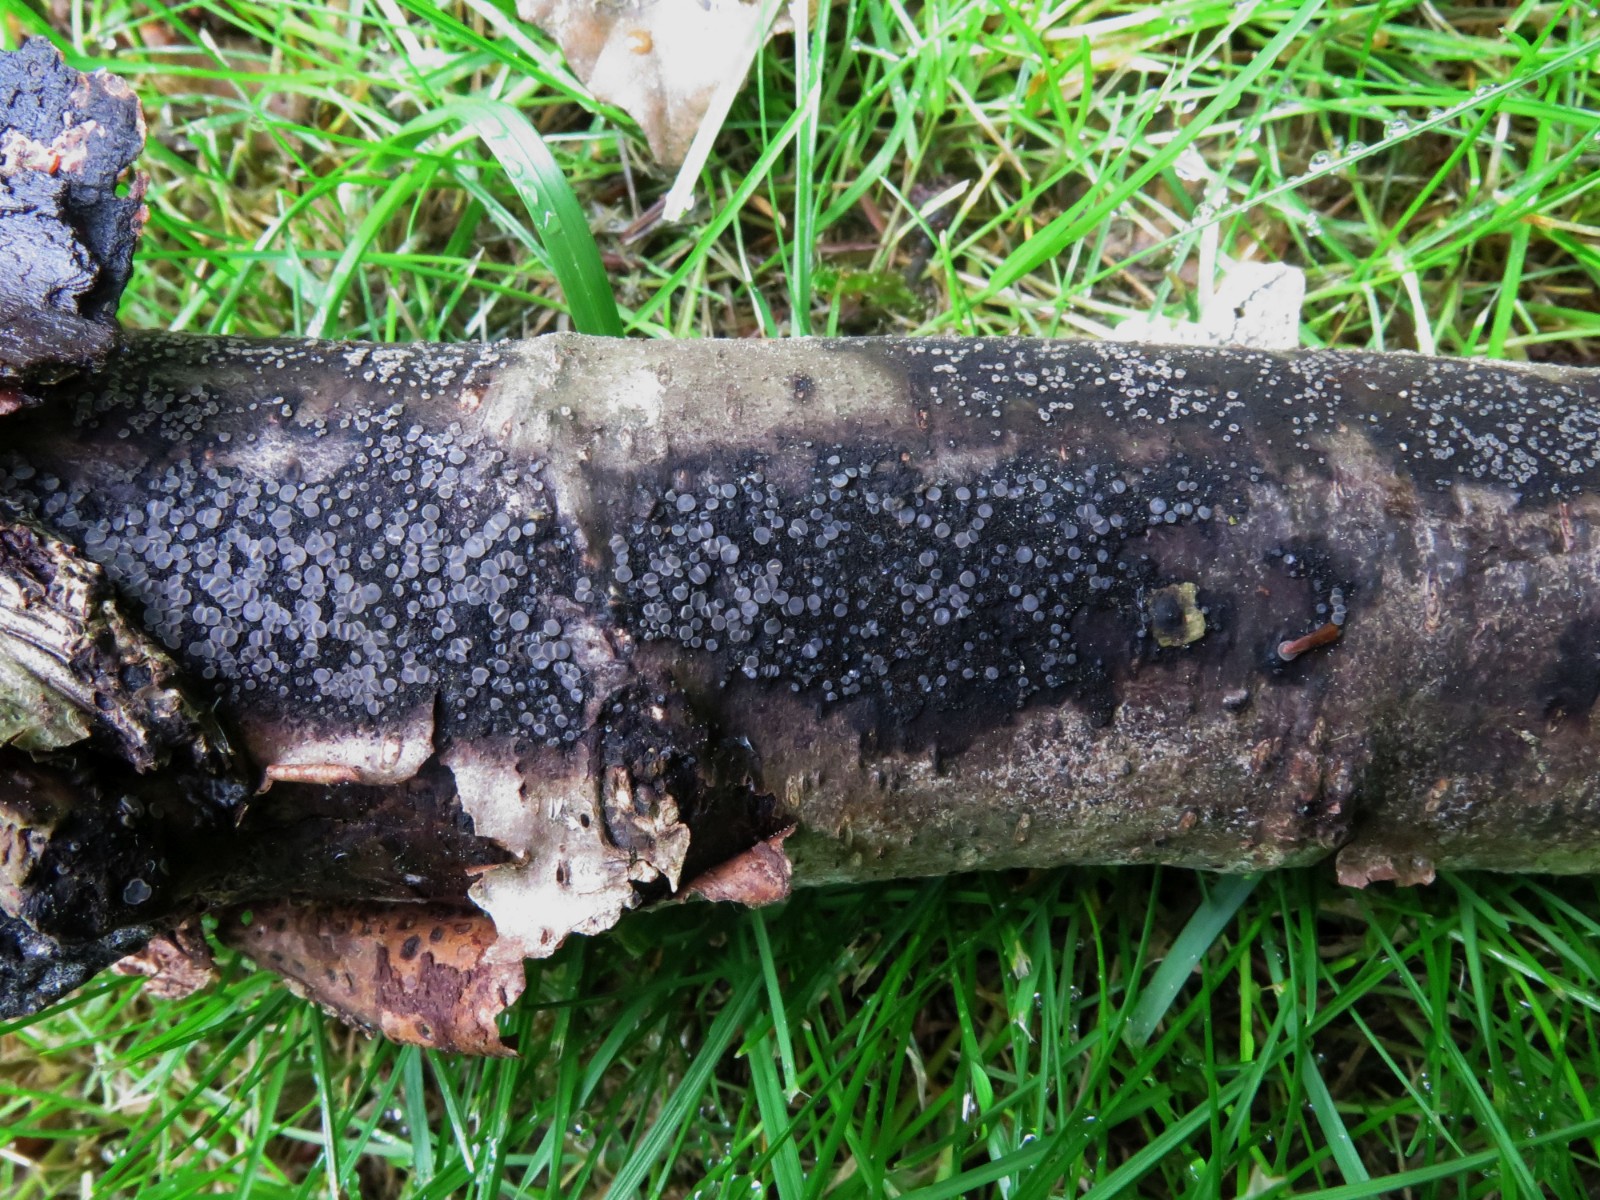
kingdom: Fungi
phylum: Ascomycota
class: Leotiomycetes
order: Helotiales
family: Mollisiaceae
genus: Tapesia
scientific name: Tapesia fusca
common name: tæppe-gråskive
